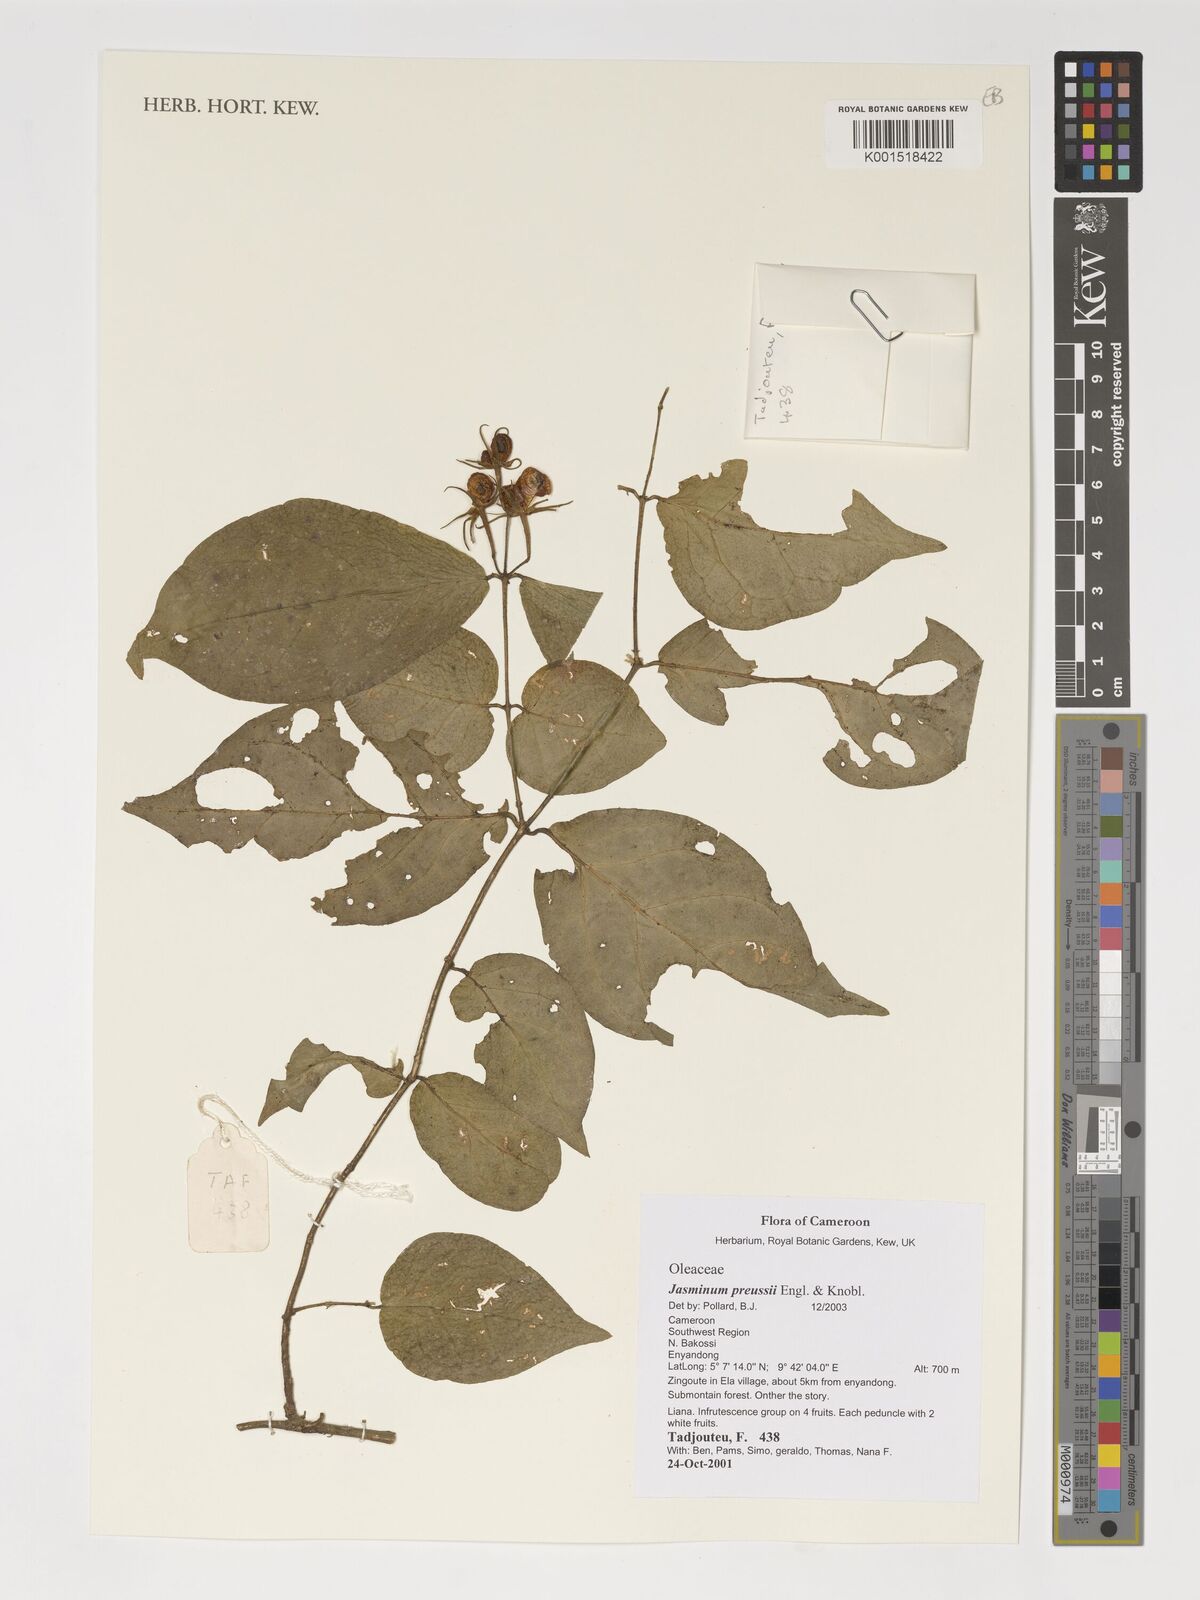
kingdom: Plantae
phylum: Tracheophyta
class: Magnoliopsida
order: Lamiales
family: Oleaceae
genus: Jasminum
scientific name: Jasminum preussii
